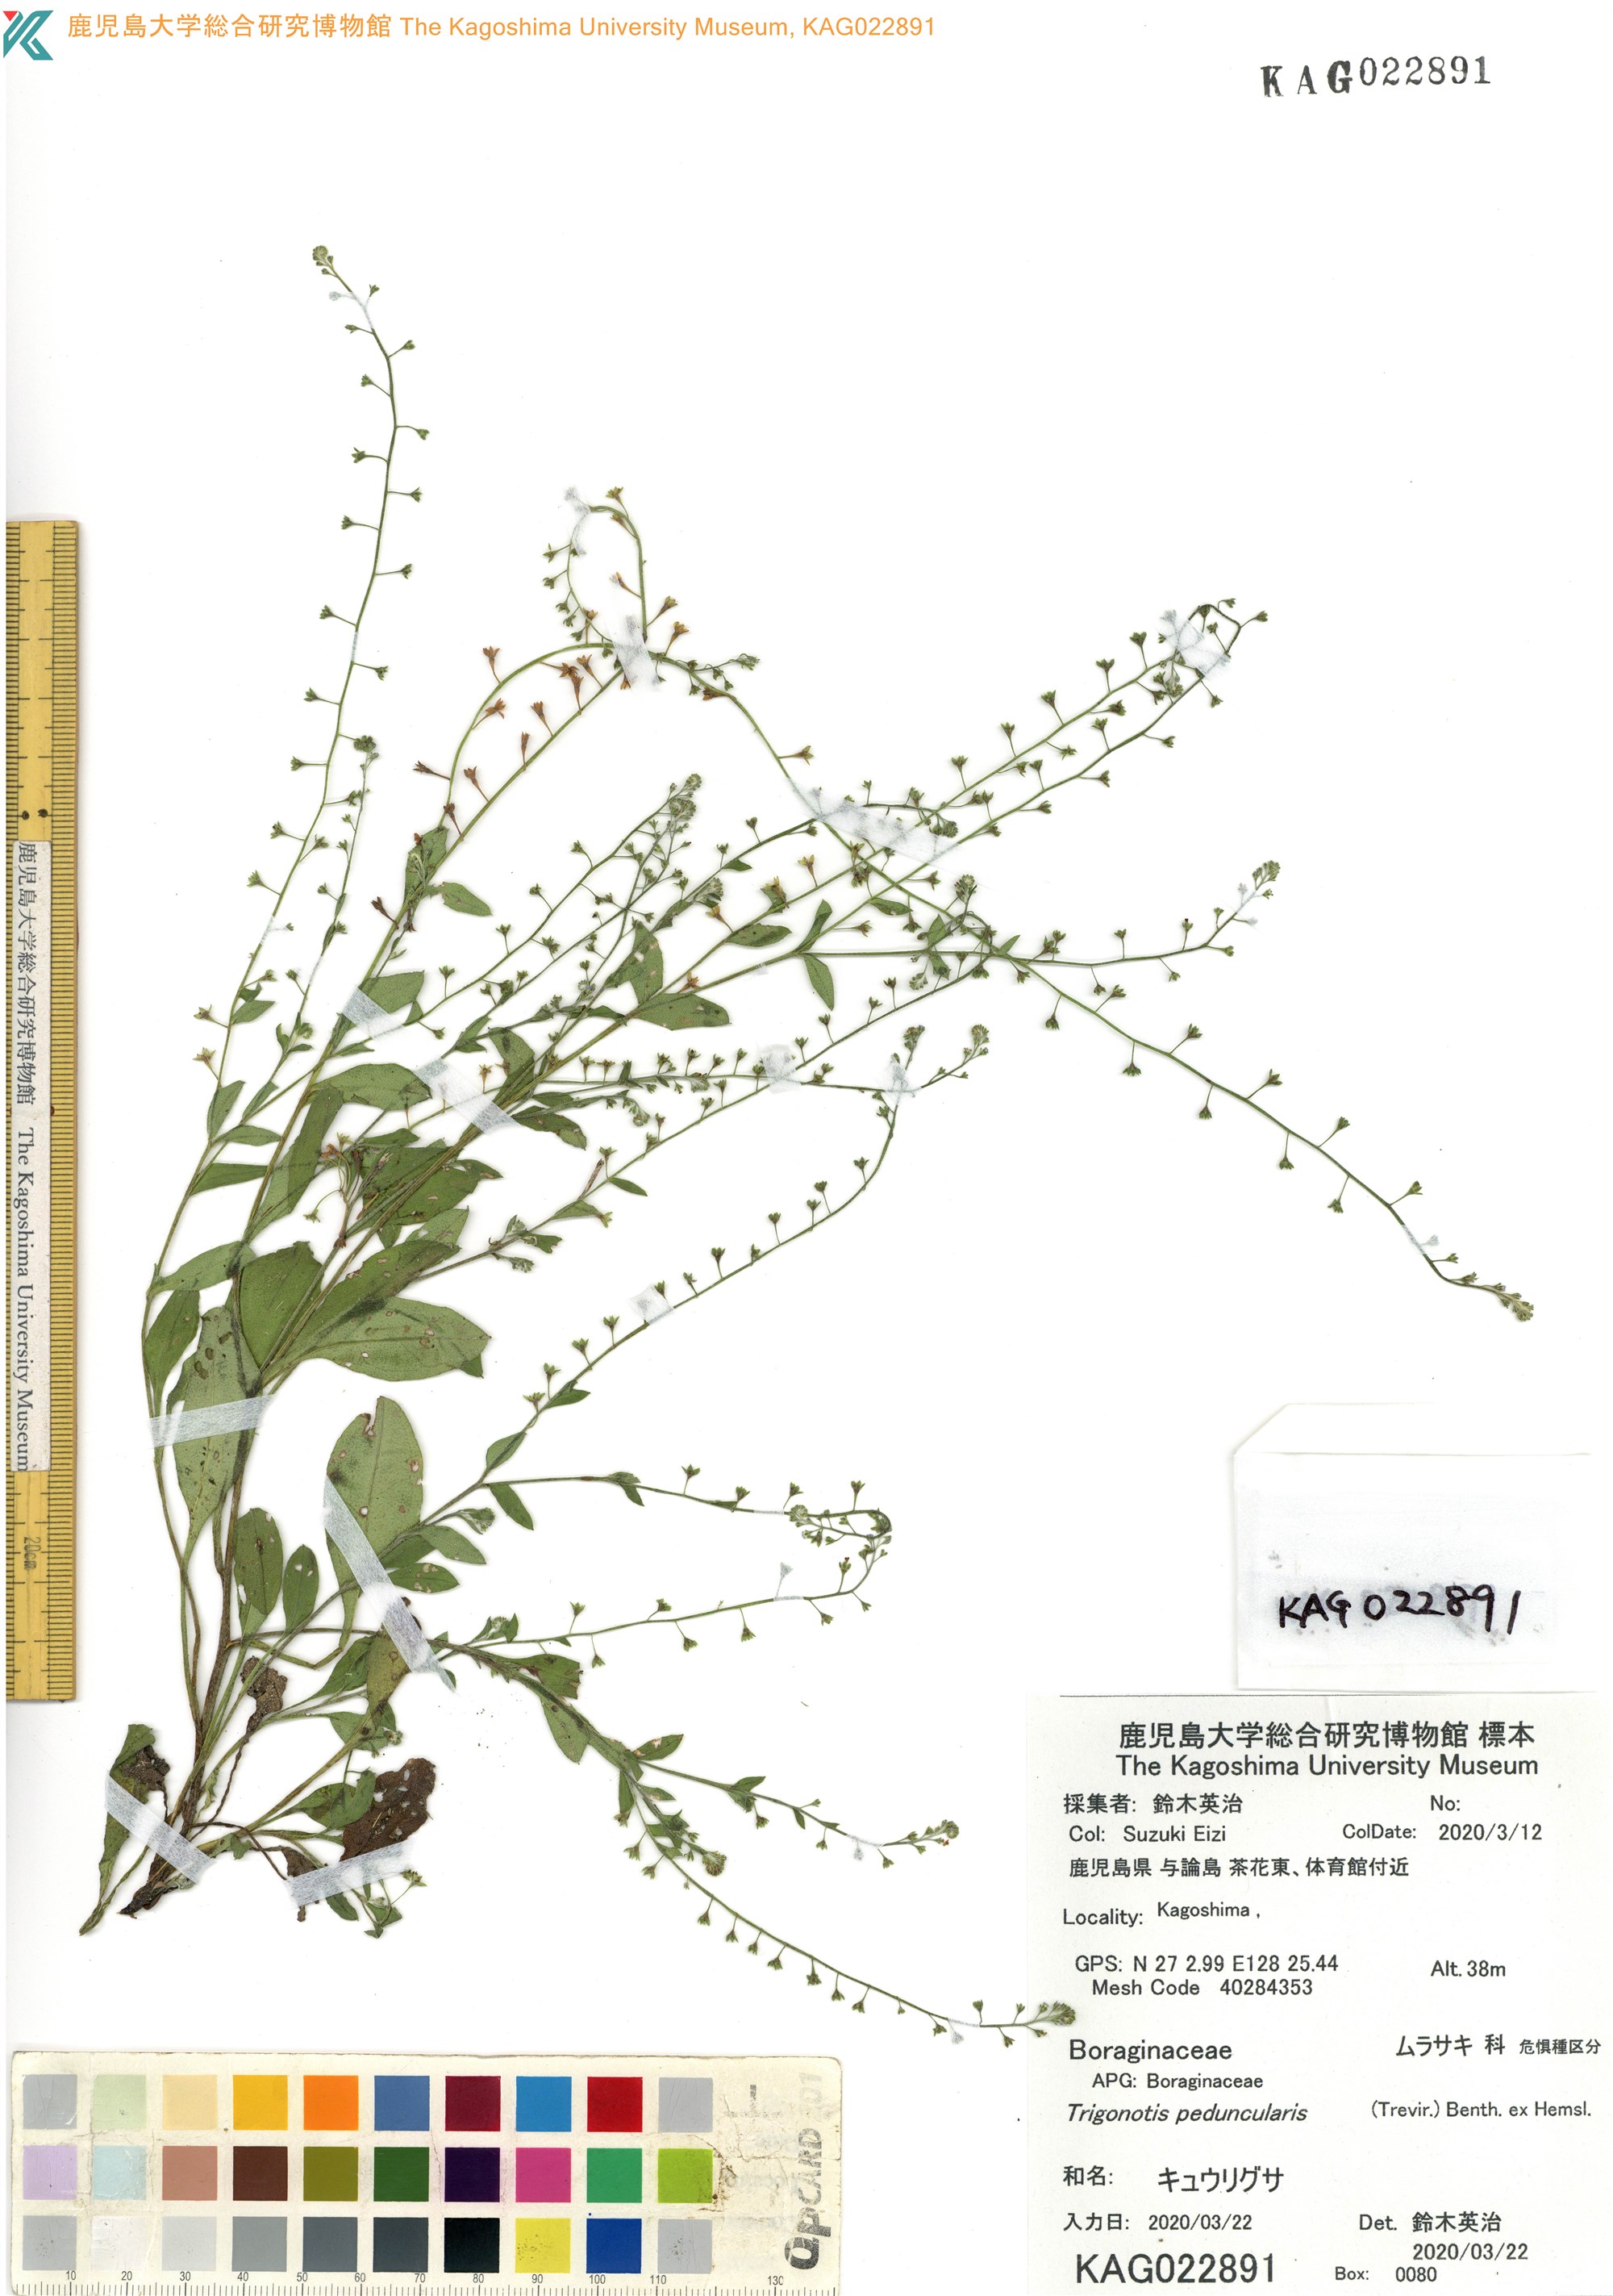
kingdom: Plantae
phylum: Tracheophyta
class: Magnoliopsida
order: Boraginales
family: Boraginaceae
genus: Trigonotis
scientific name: Trigonotis peduncularis
